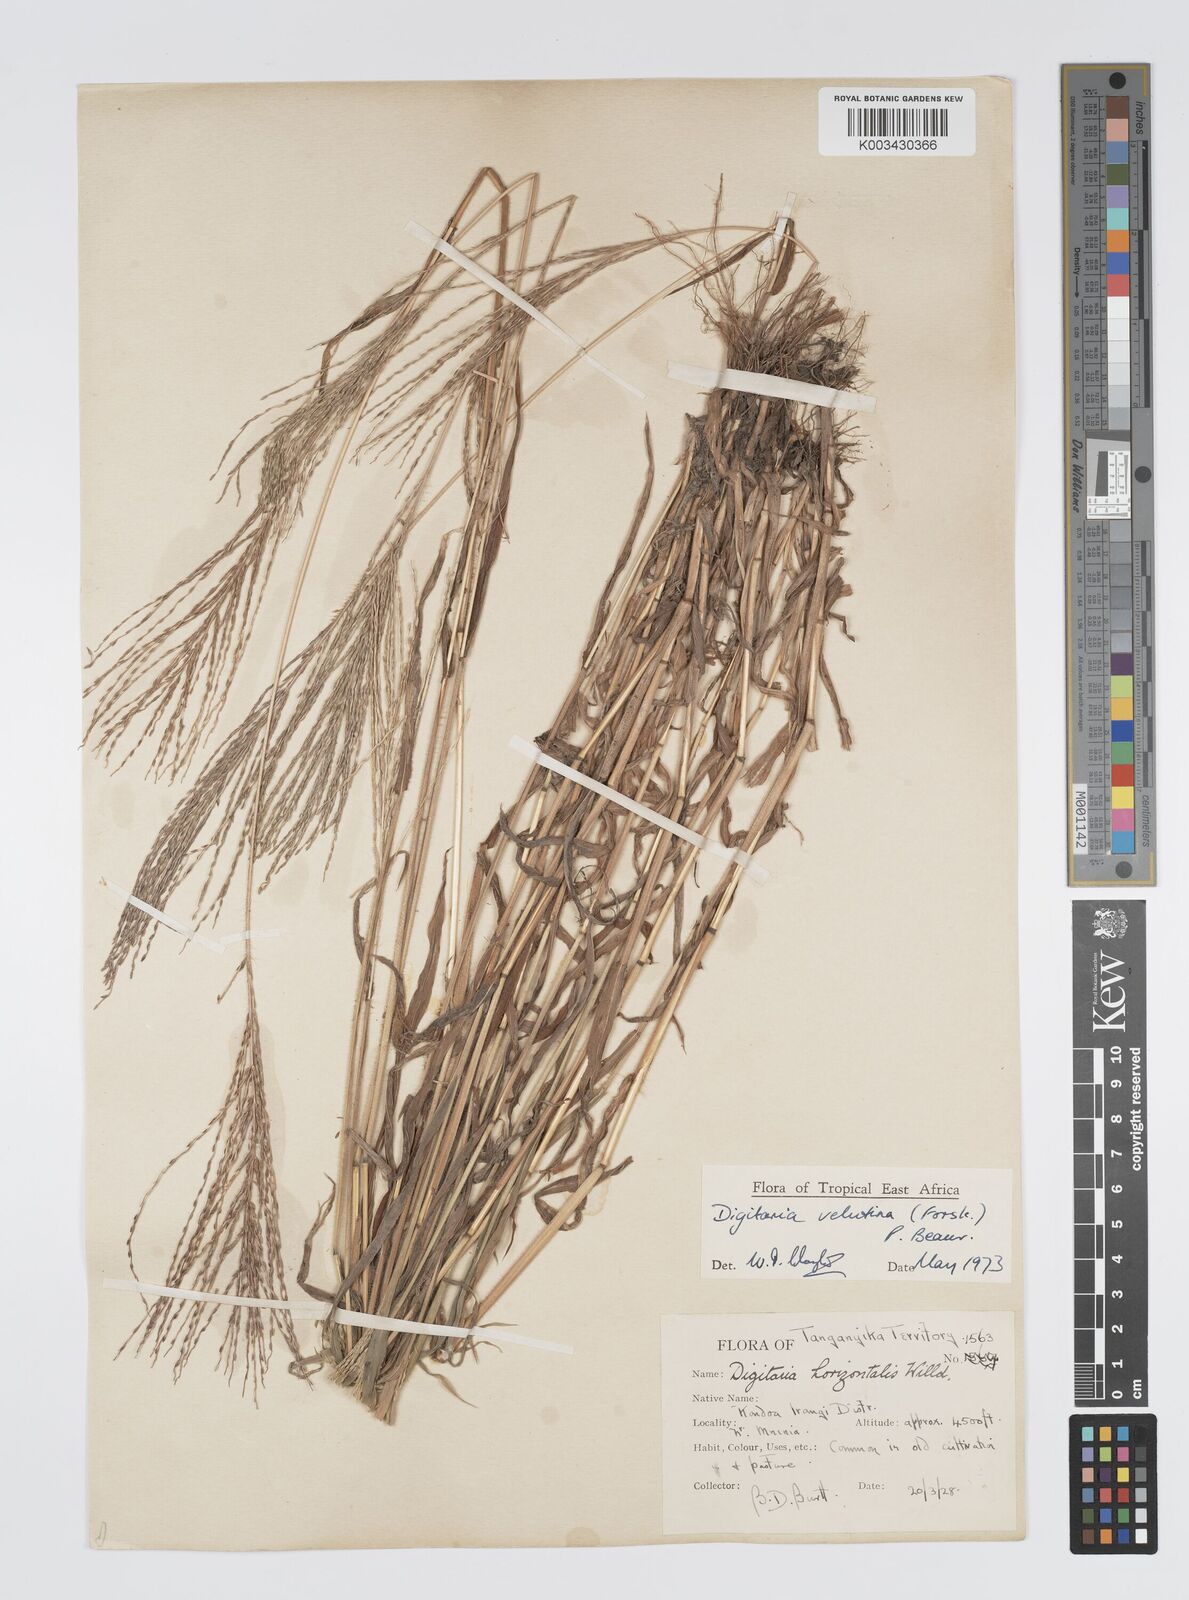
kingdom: Plantae
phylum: Tracheophyta
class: Liliopsida
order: Poales
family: Poaceae
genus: Digitaria
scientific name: Digitaria velutina
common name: Long-plume finger grass
